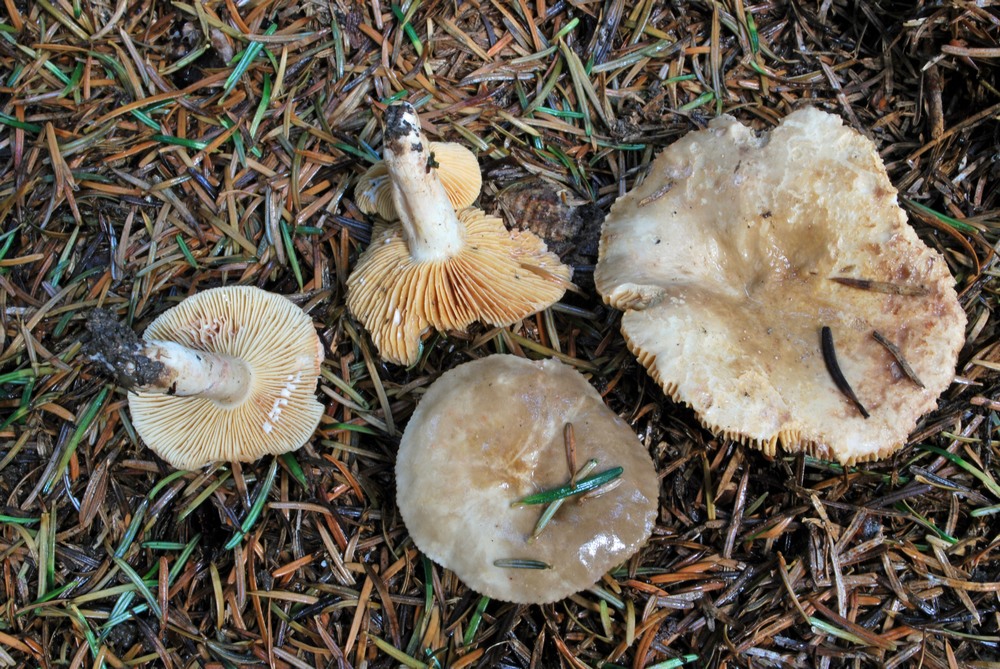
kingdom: Fungi
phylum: Basidiomycota
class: Agaricomycetes
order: Russulales
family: Russulaceae
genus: Lactarius
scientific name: Lactarius pterosporus
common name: vingesporet mælkehat
